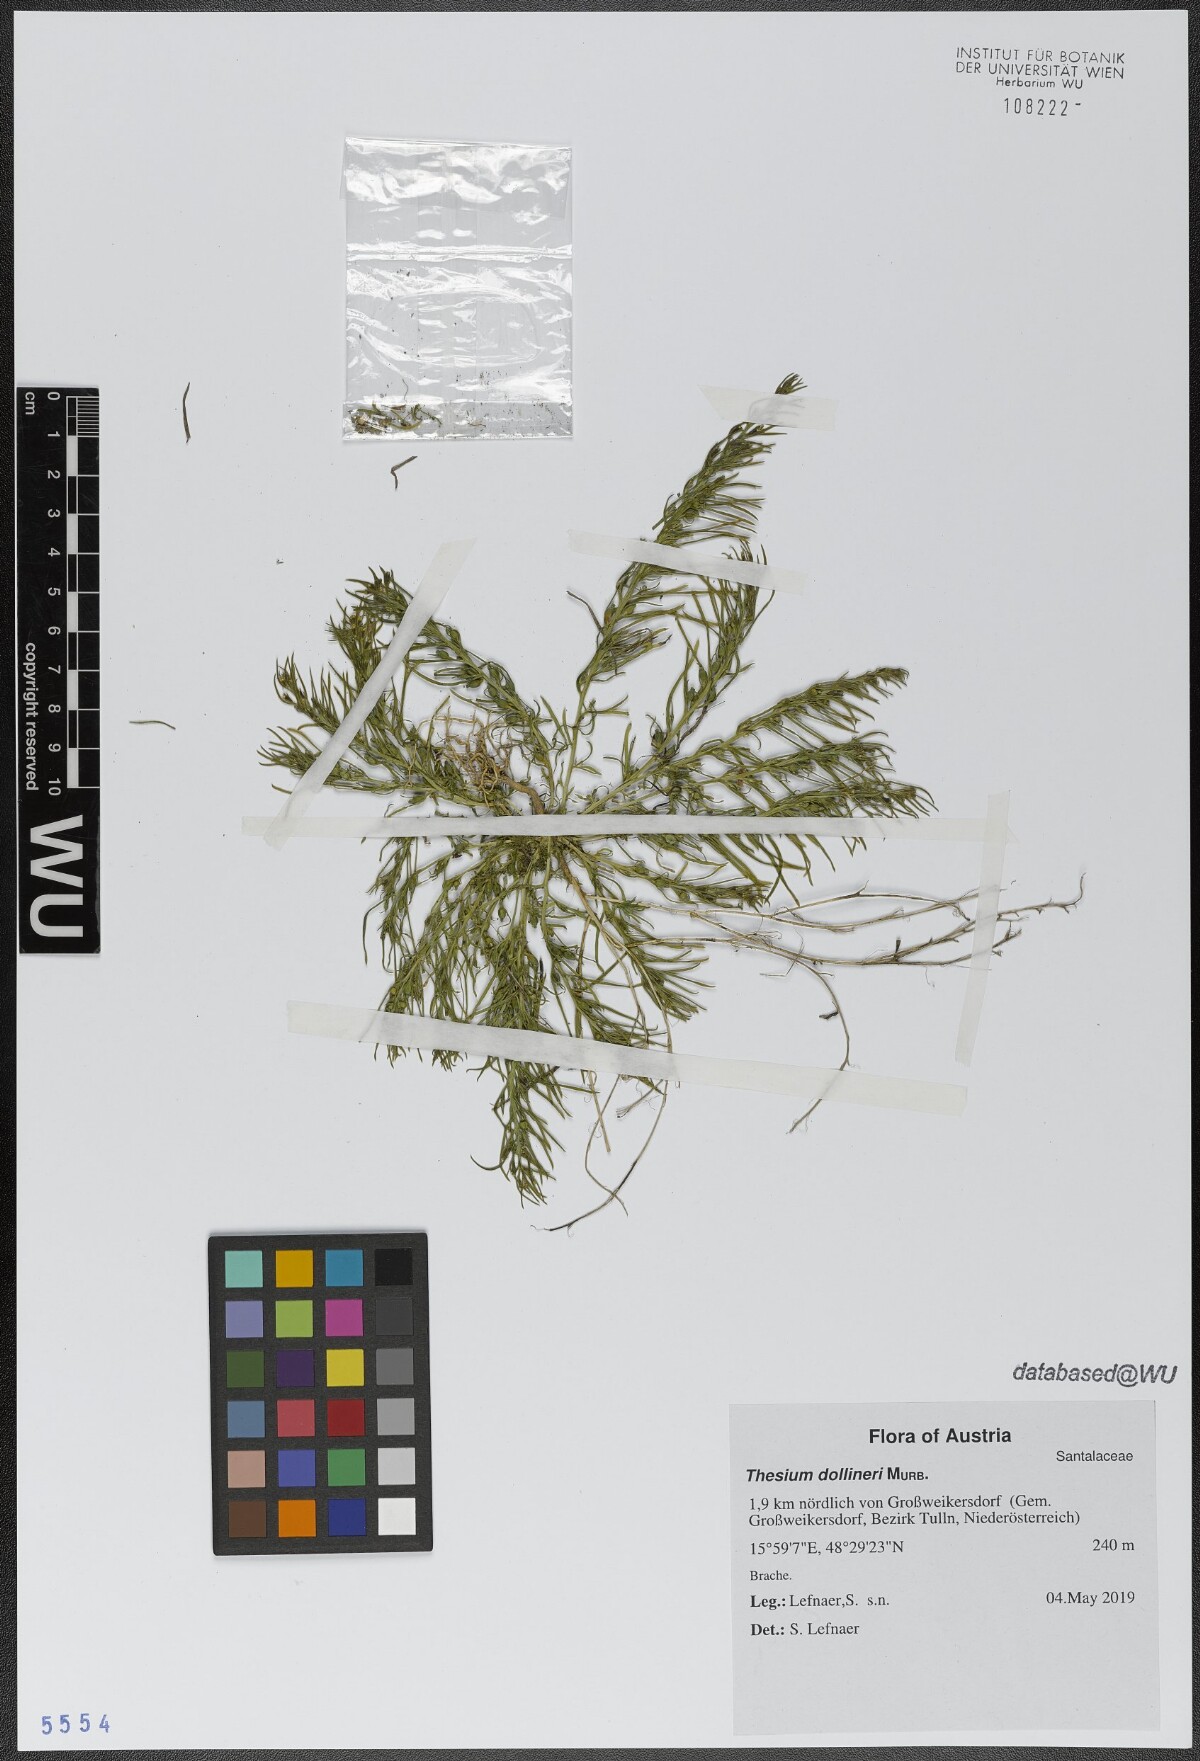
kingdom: Plantae
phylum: Tracheophyta
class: Magnoliopsida
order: Santalales
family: Thesiaceae
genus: Thesium
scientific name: Thesium dollineri
